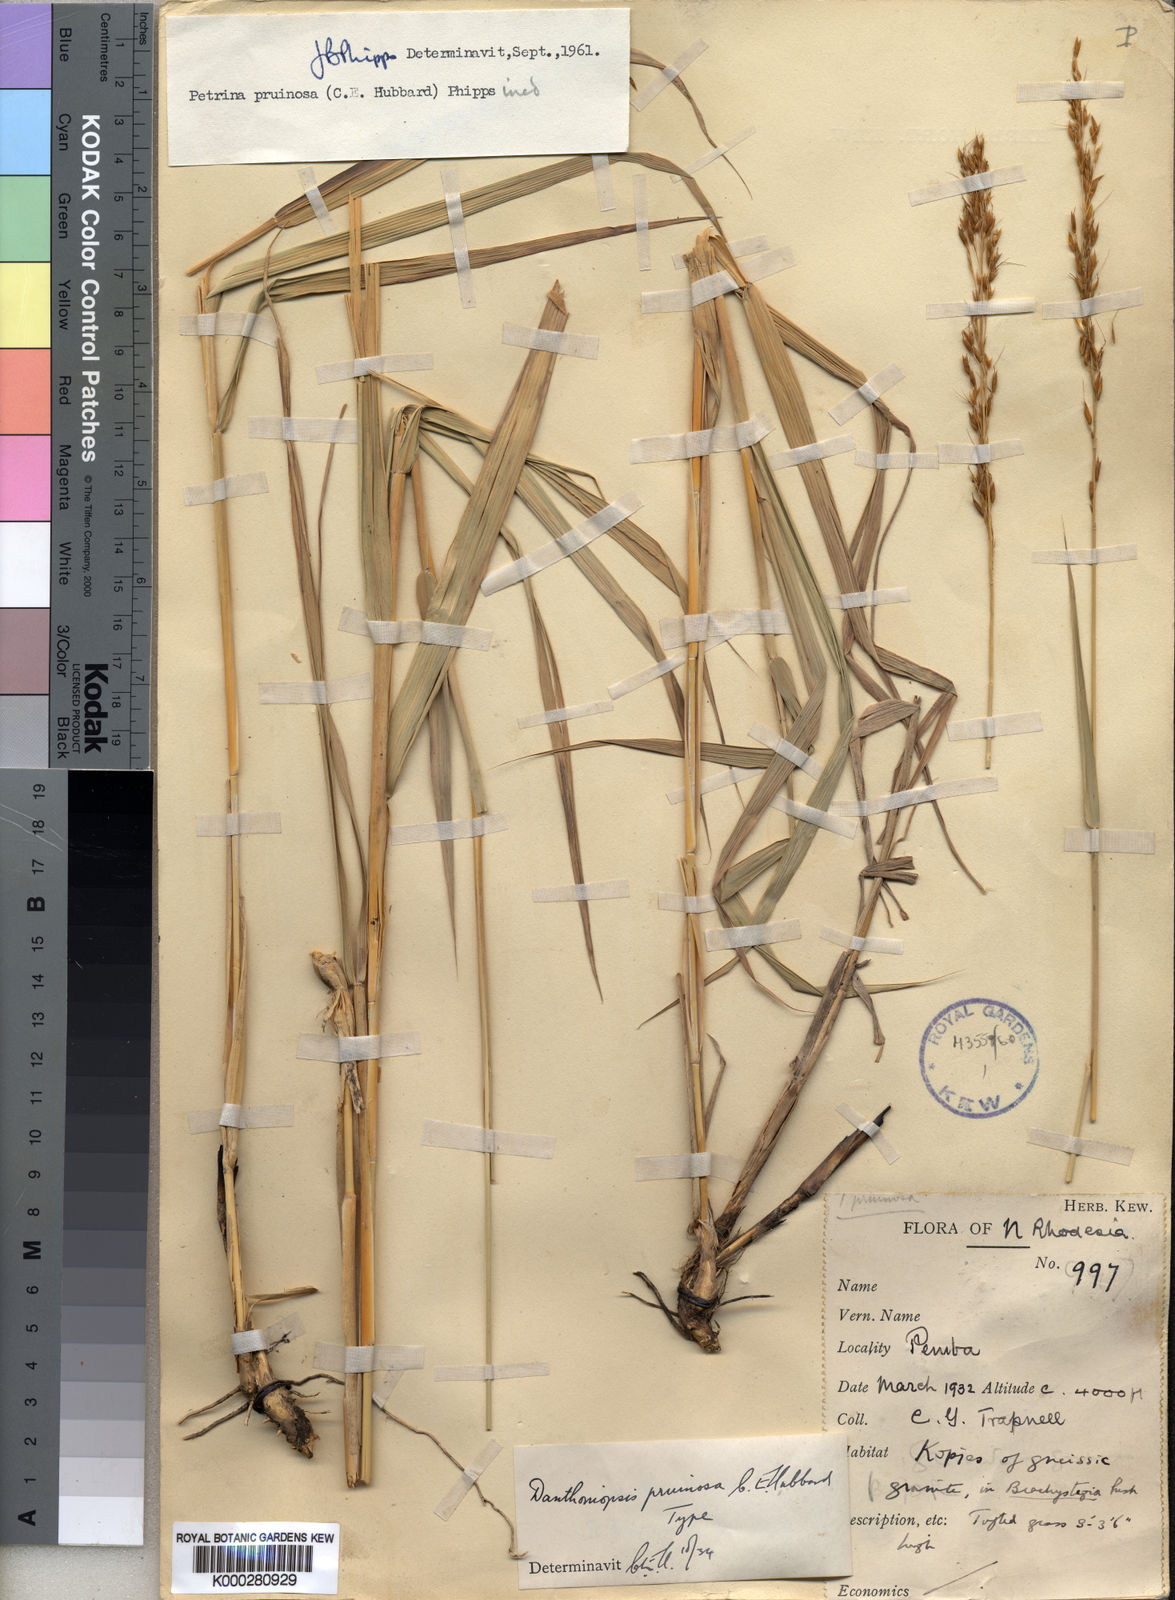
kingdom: Plantae
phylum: Tracheophyta
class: Liliopsida
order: Poales
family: Poaceae
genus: Danthoniopsis
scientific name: Danthoniopsis pruinosa
